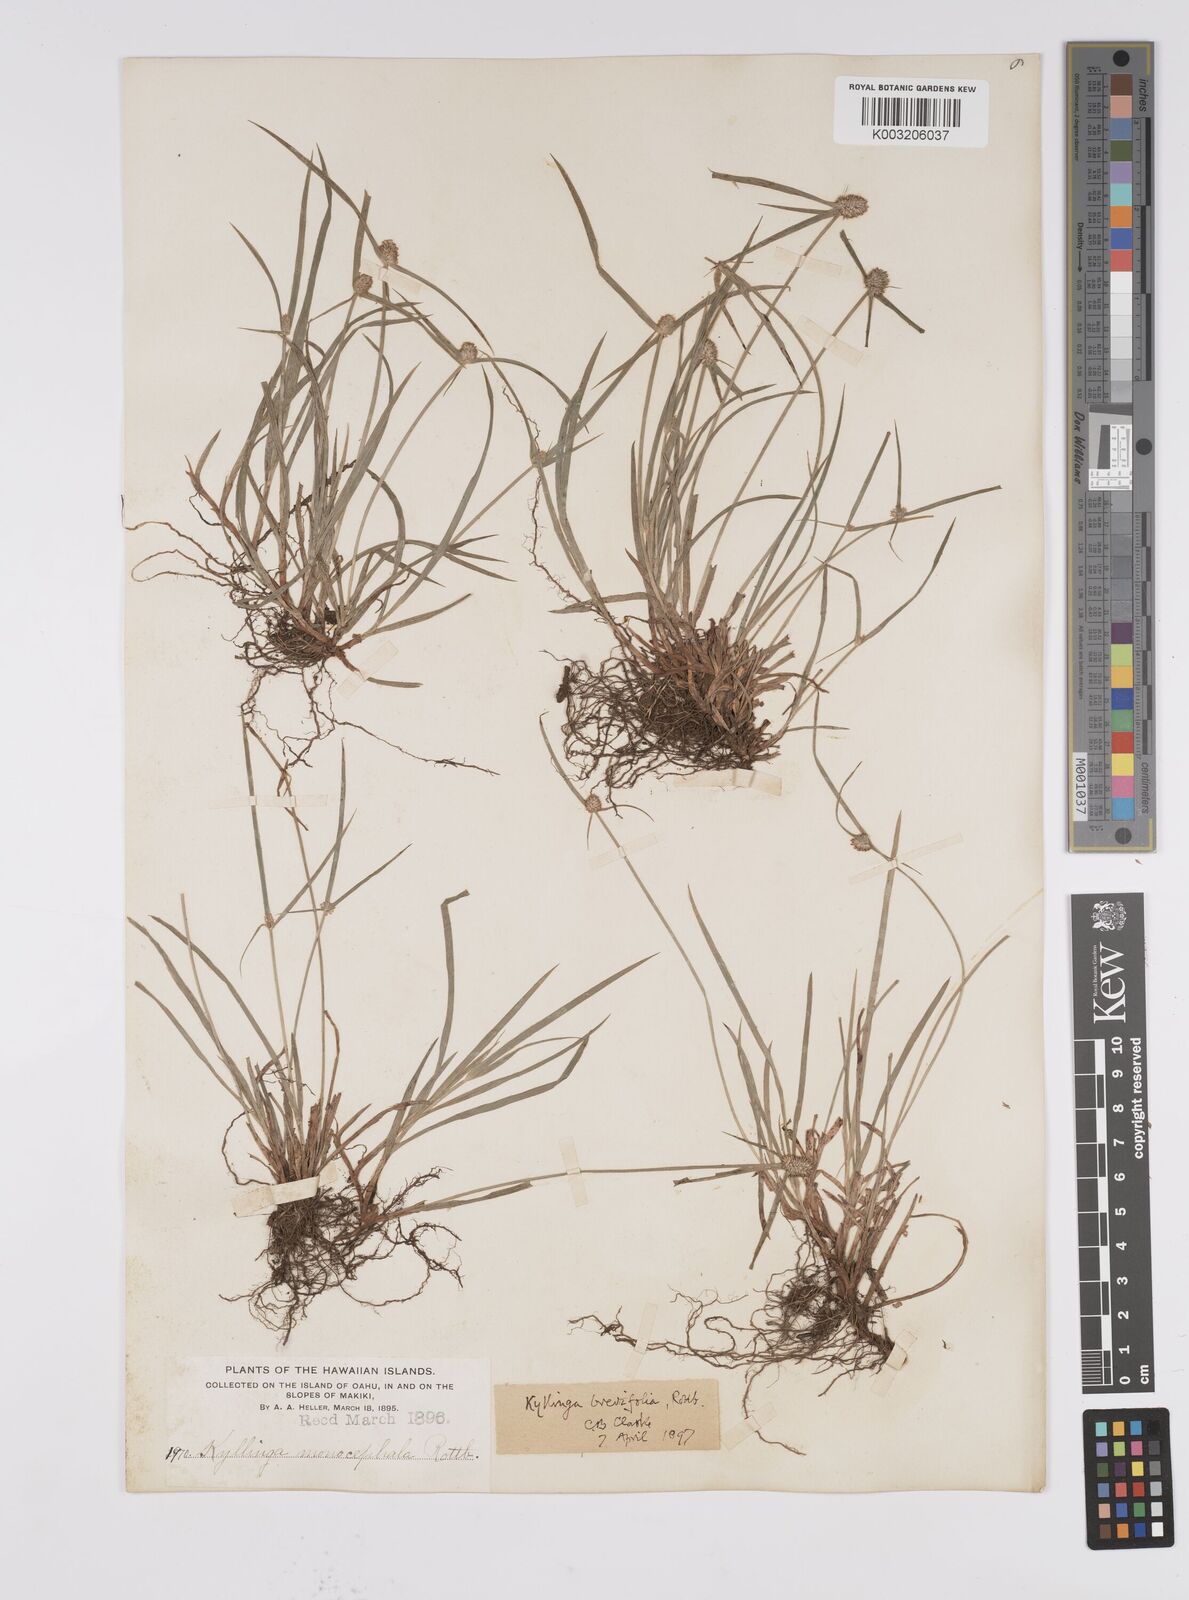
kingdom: Plantae
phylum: Tracheophyta
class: Liliopsida
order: Poales
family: Cyperaceae
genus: Cyperus
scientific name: Cyperus brevifolius
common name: Globe kyllinga
